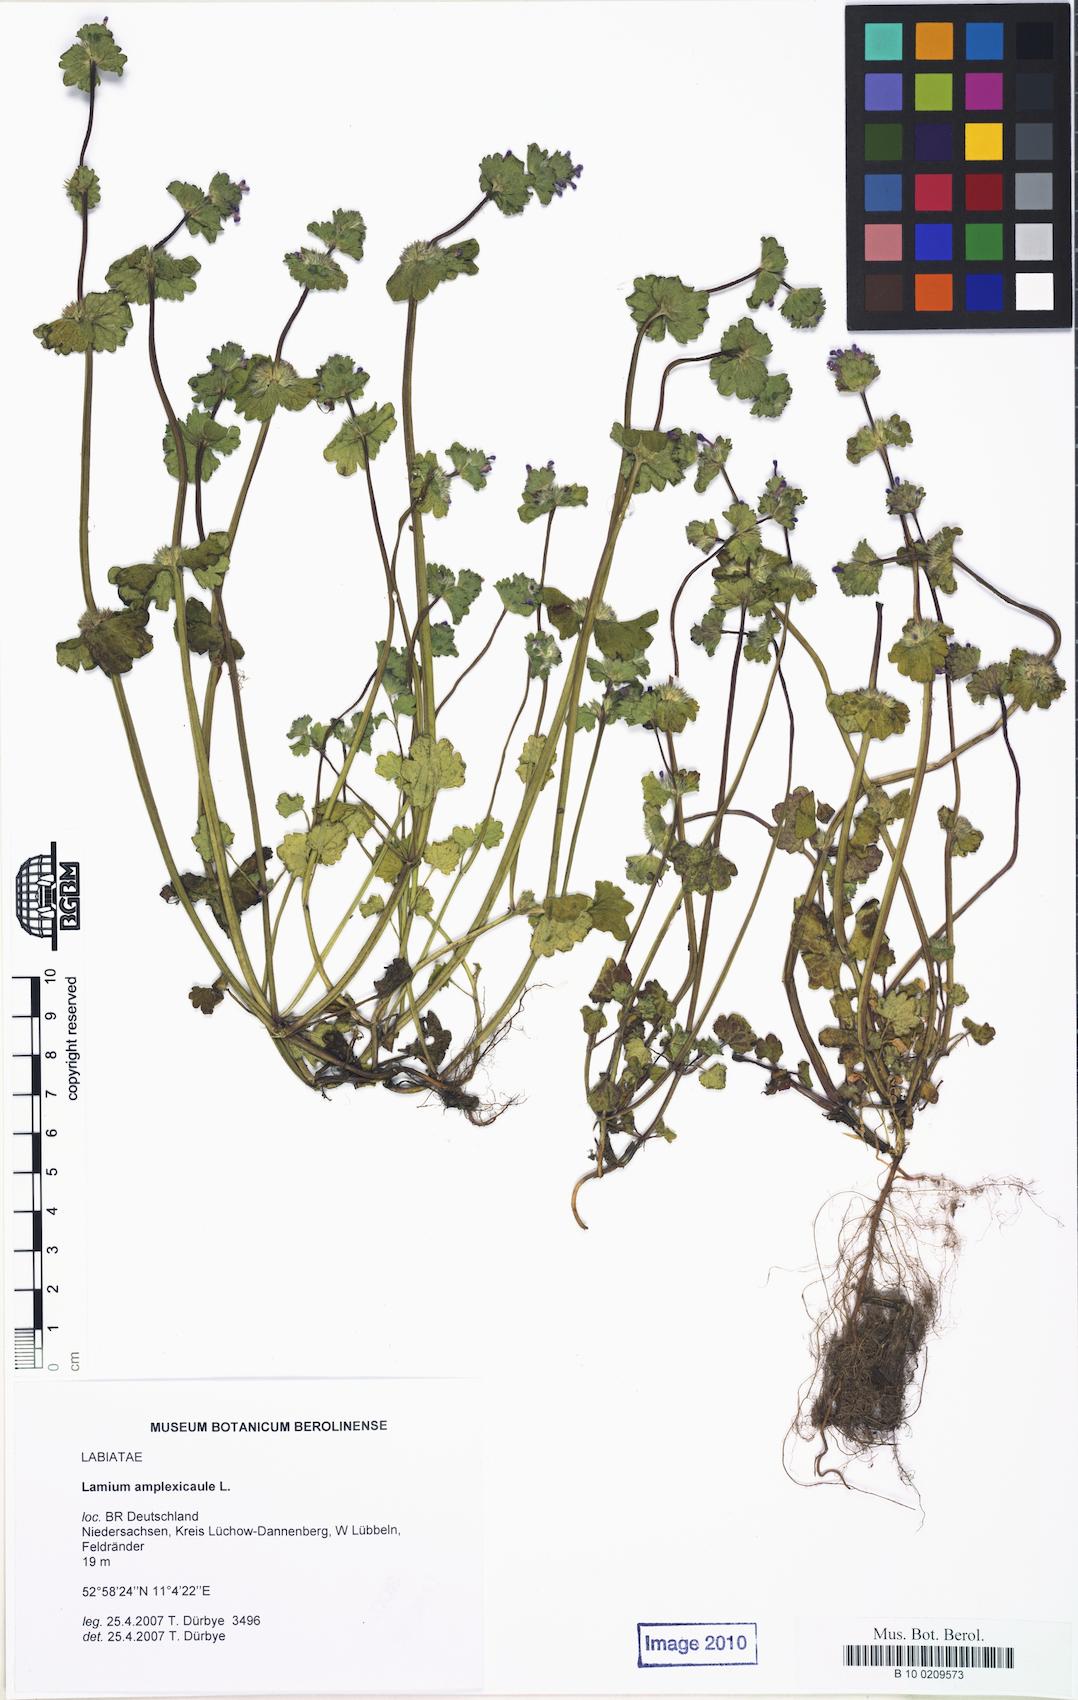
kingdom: Plantae
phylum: Tracheophyta
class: Magnoliopsida
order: Lamiales
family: Lamiaceae
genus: Lamium
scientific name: Lamium amplexicaule
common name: Henbit dead-nettle
